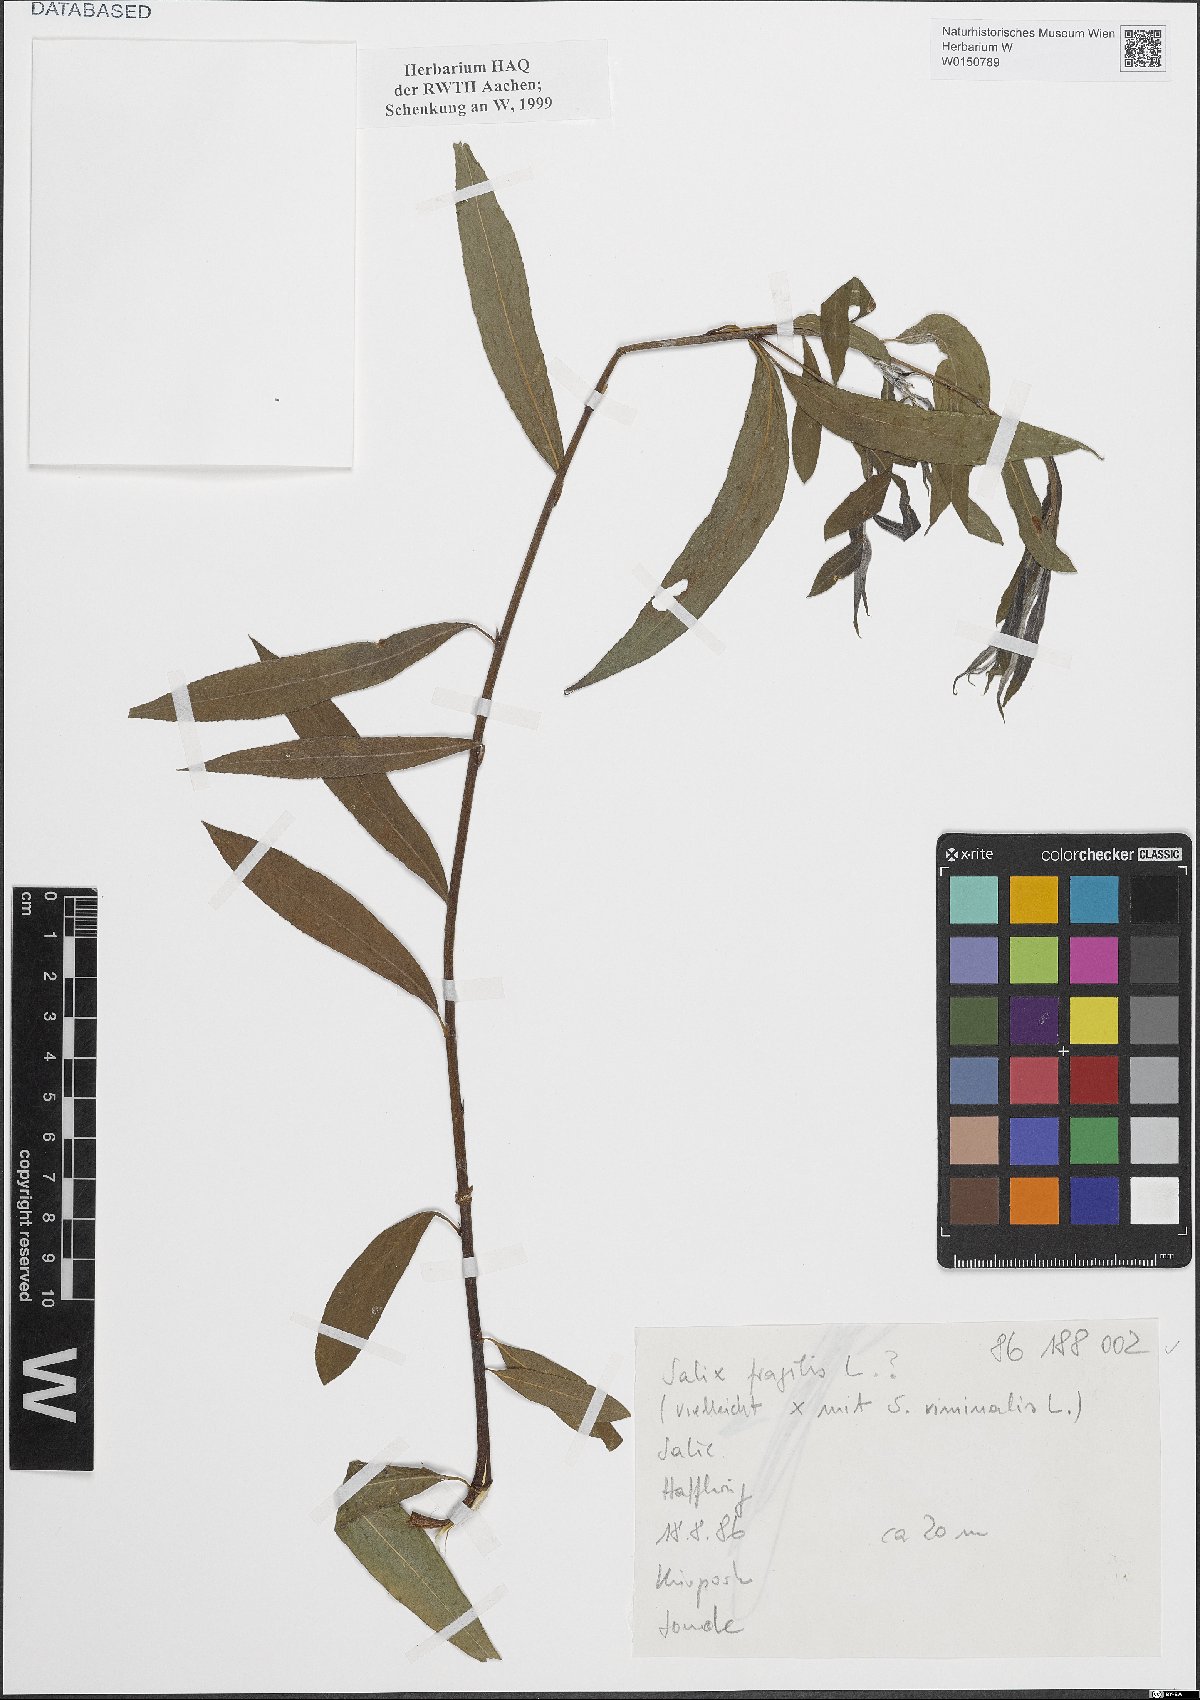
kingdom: Plantae
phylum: Tracheophyta
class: Magnoliopsida
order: Malpighiales
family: Salicaceae
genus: Salix
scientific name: Salix fragilis
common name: Crack willow
